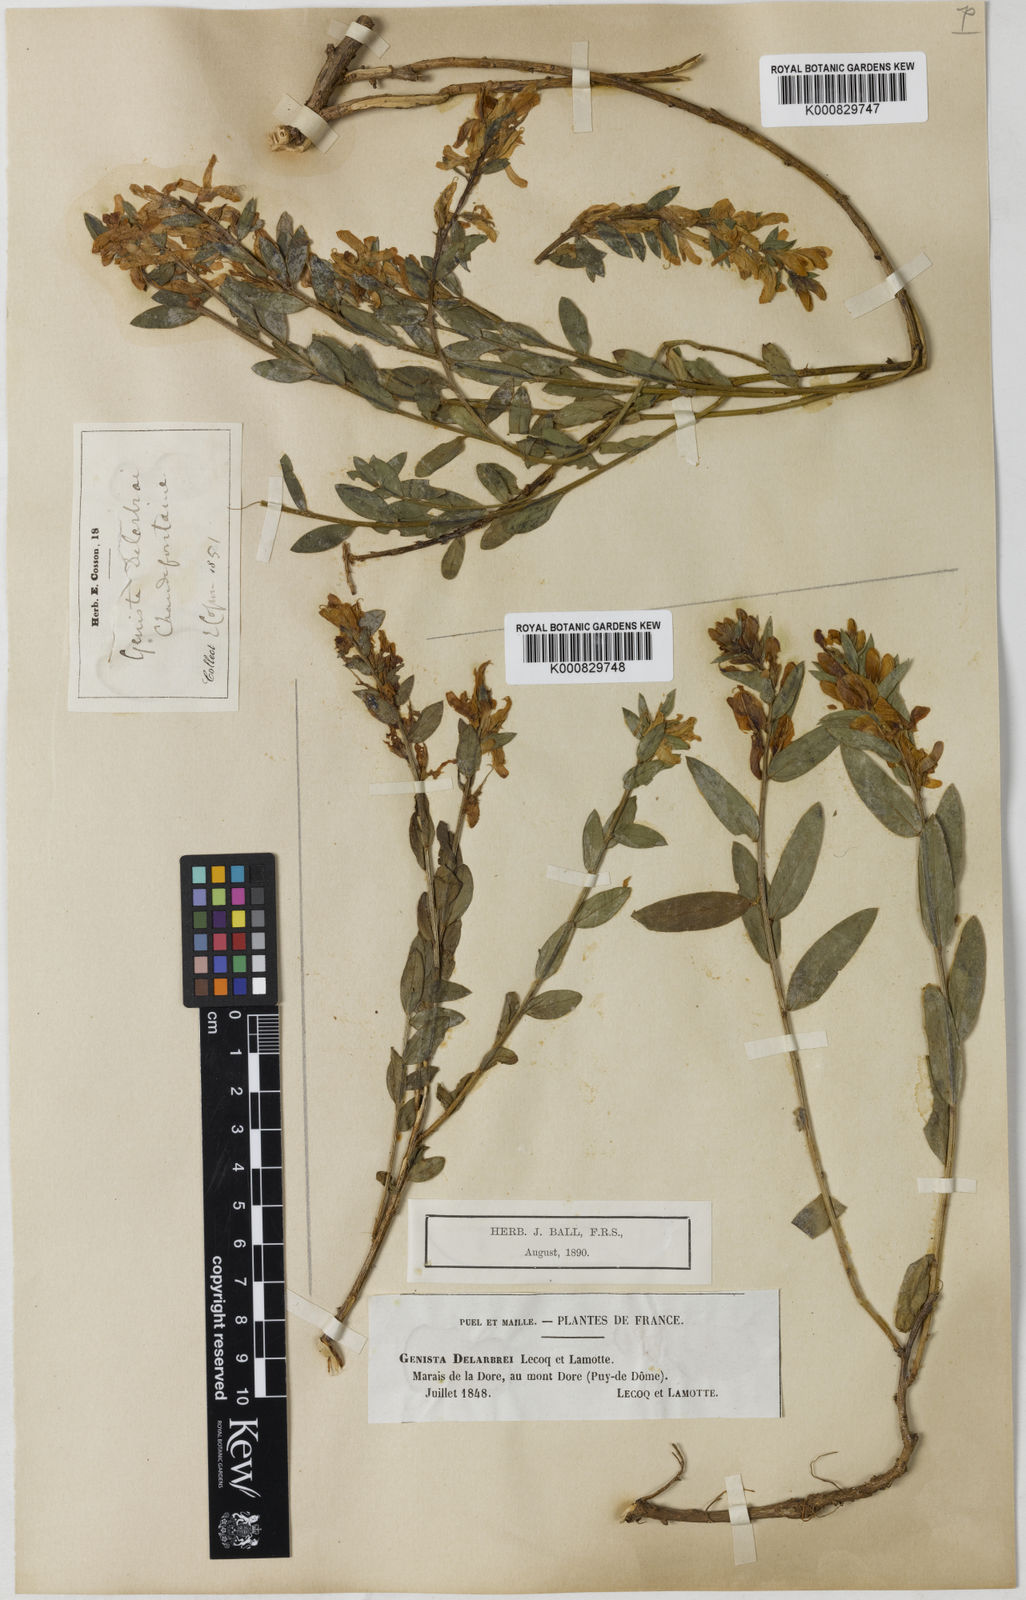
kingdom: Plantae
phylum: Tracheophyta
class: Magnoliopsida
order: Fabales
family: Fabaceae
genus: Genista
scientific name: Genista tinctoria
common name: Dyer's greenweed
